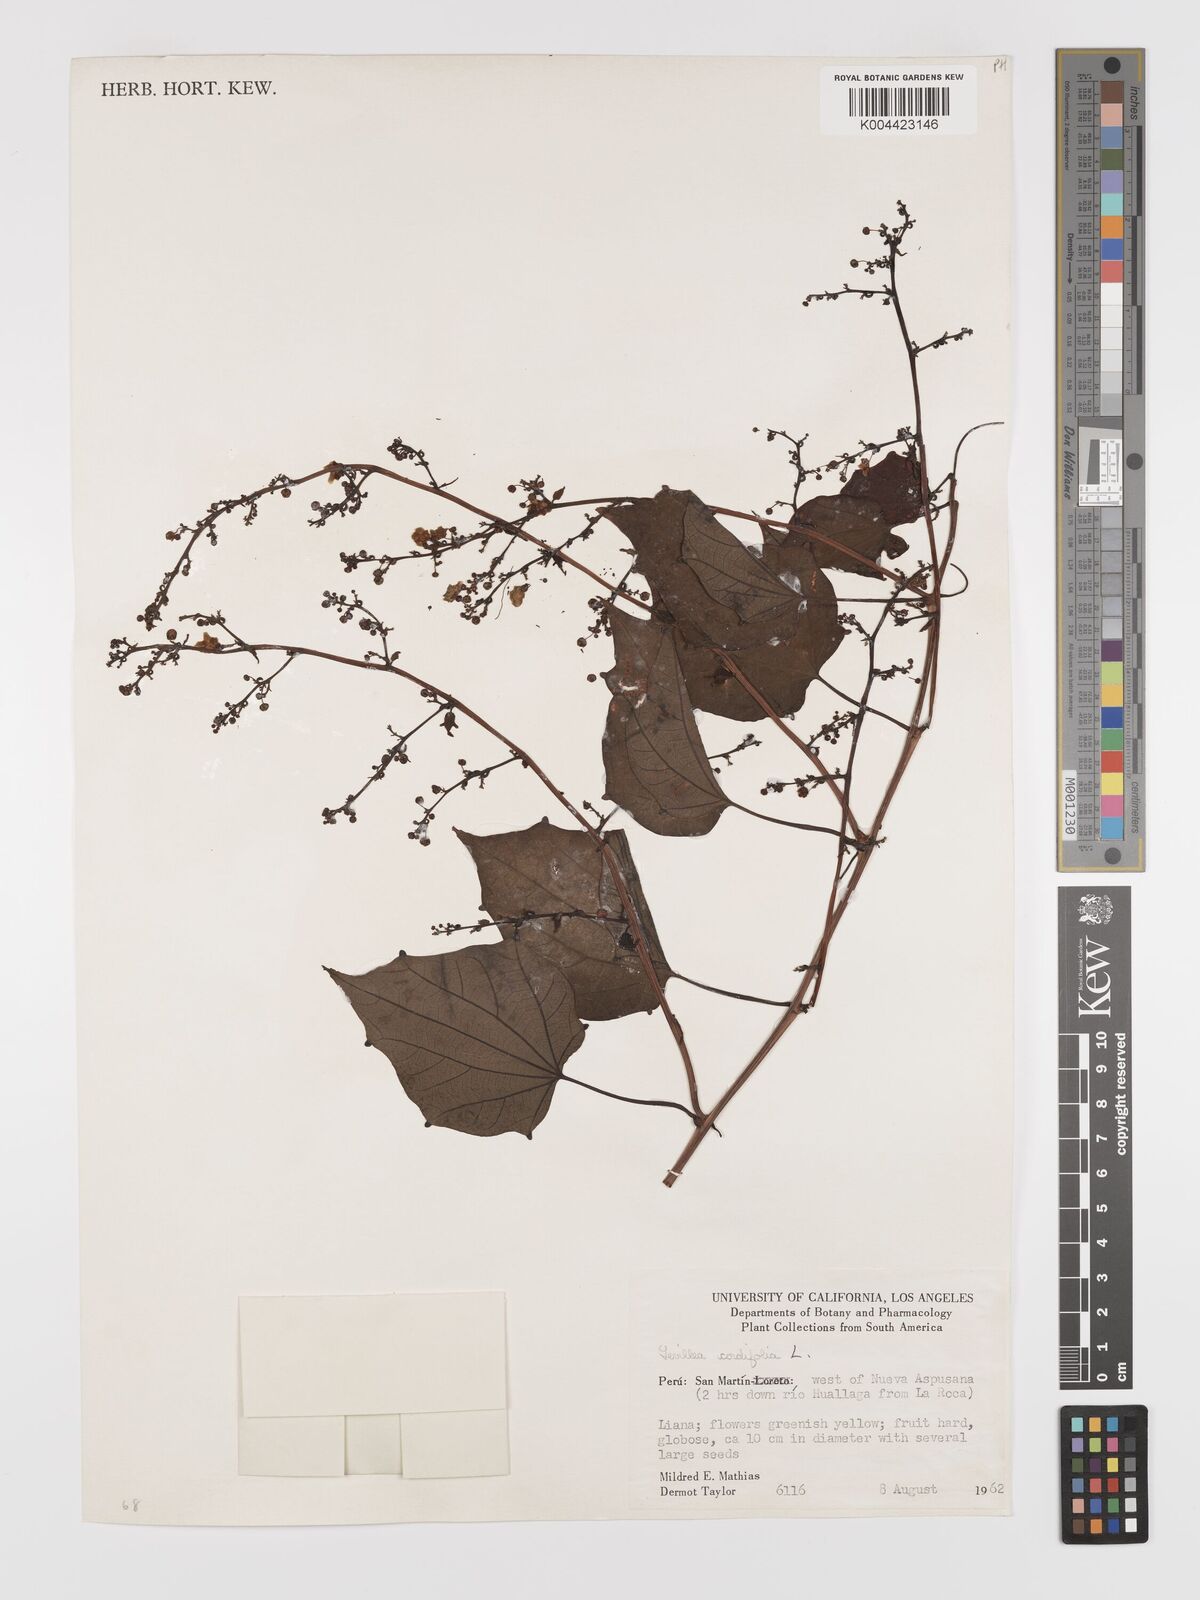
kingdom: Plantae
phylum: Tracheophyta
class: Magnoliopsida
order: Cucurbitales
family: Cucurbitaceae
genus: Fevillea
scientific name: Fevillea
